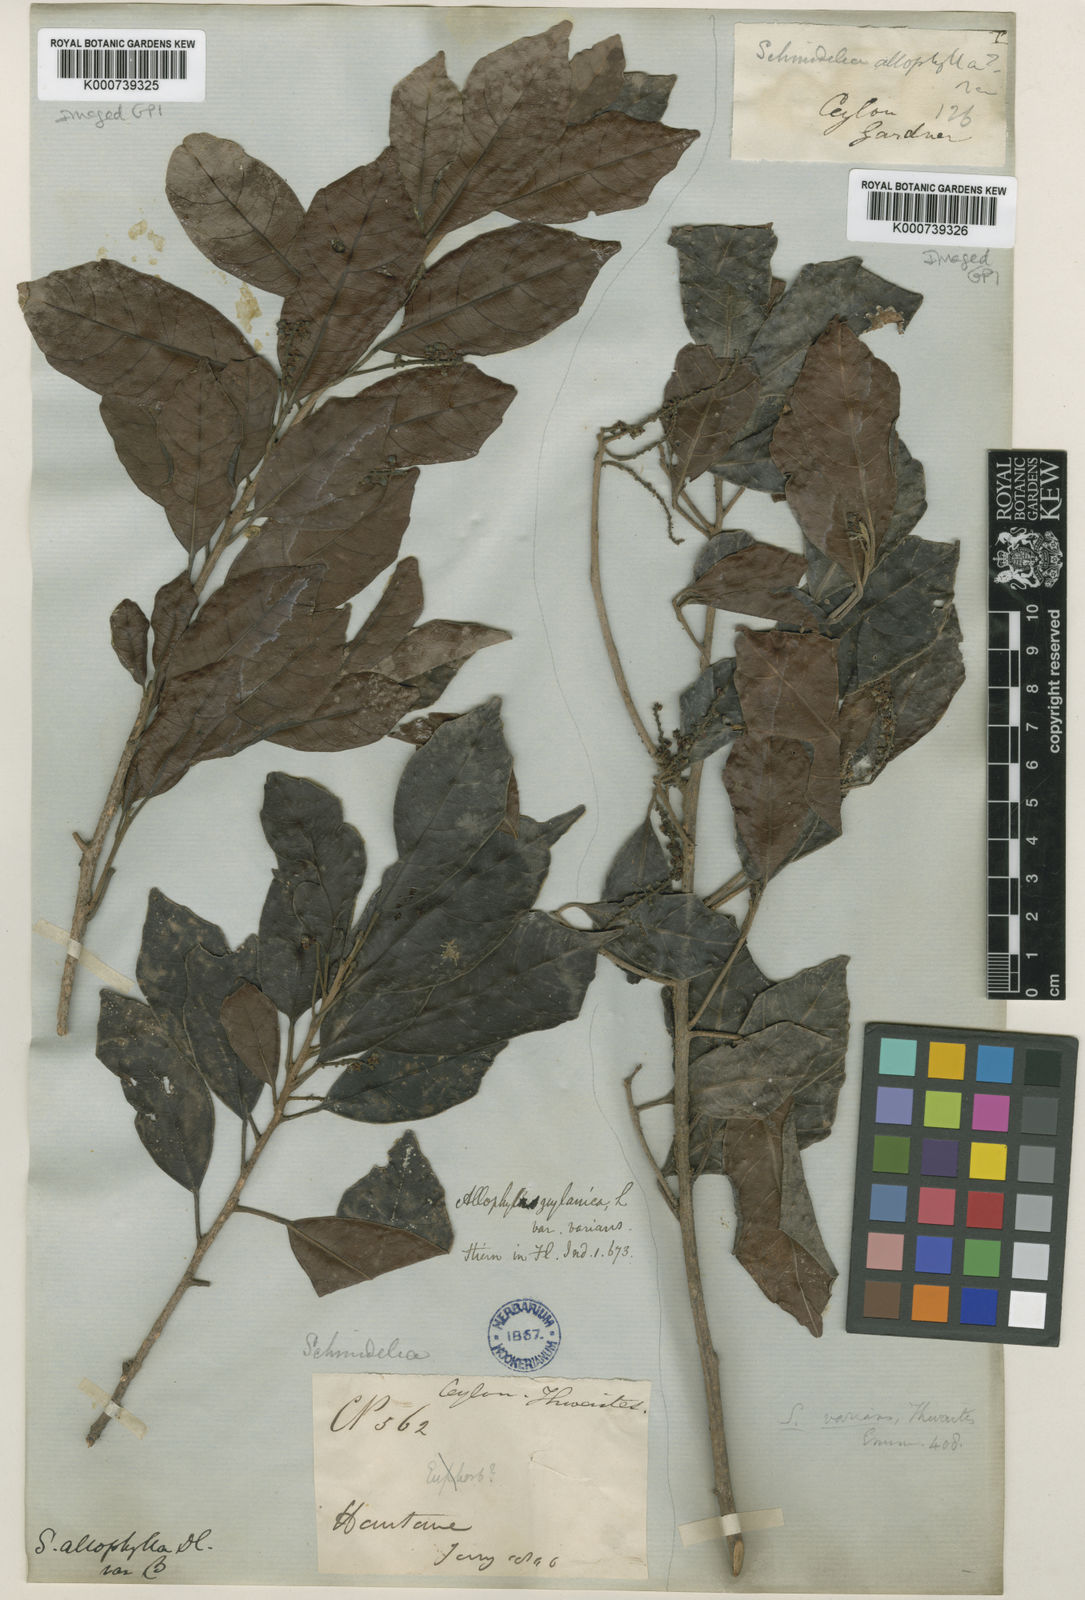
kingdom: Plantae
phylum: Tracheophyta
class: Magnoliopsida
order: Sapindales
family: Sapindaceae
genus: Allophylus
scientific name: Allophylus zeylanicus
